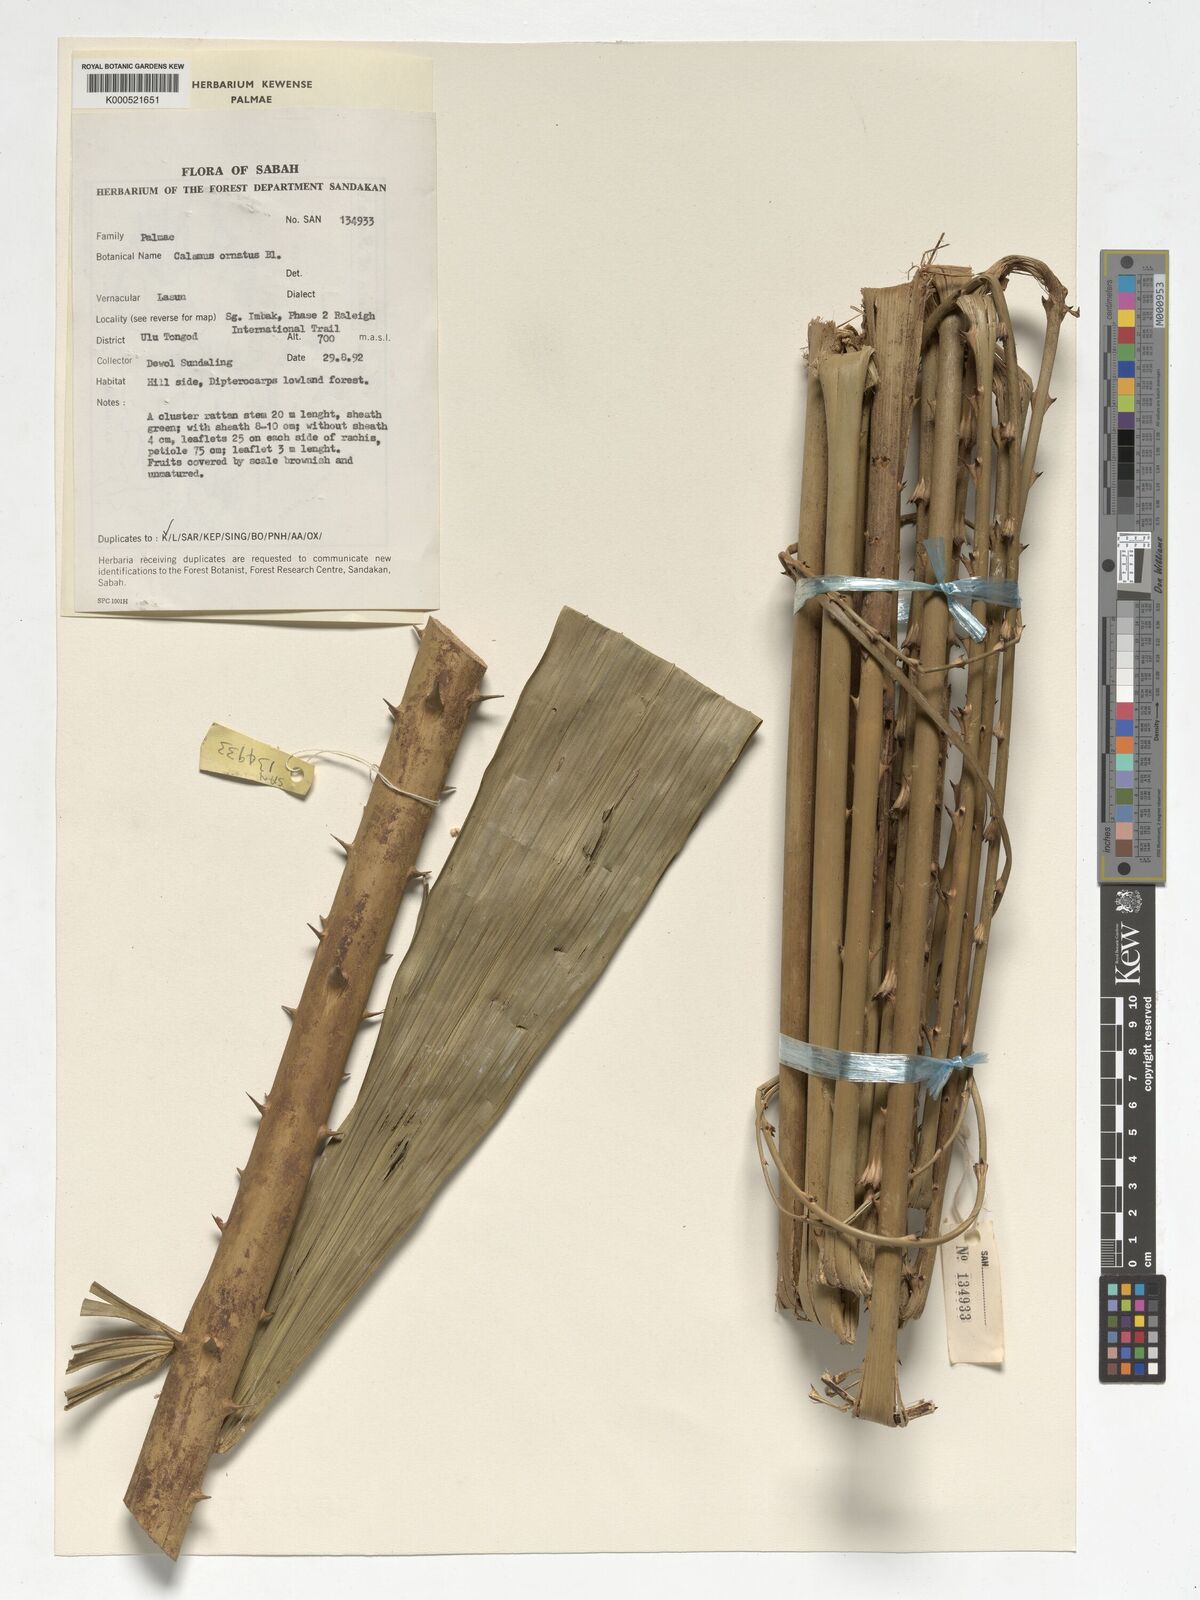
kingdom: Plantae
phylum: Tracheophyta
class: Liliopsida
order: Arecales
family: Arecaceae
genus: Calamus
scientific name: Calamus ornatus
